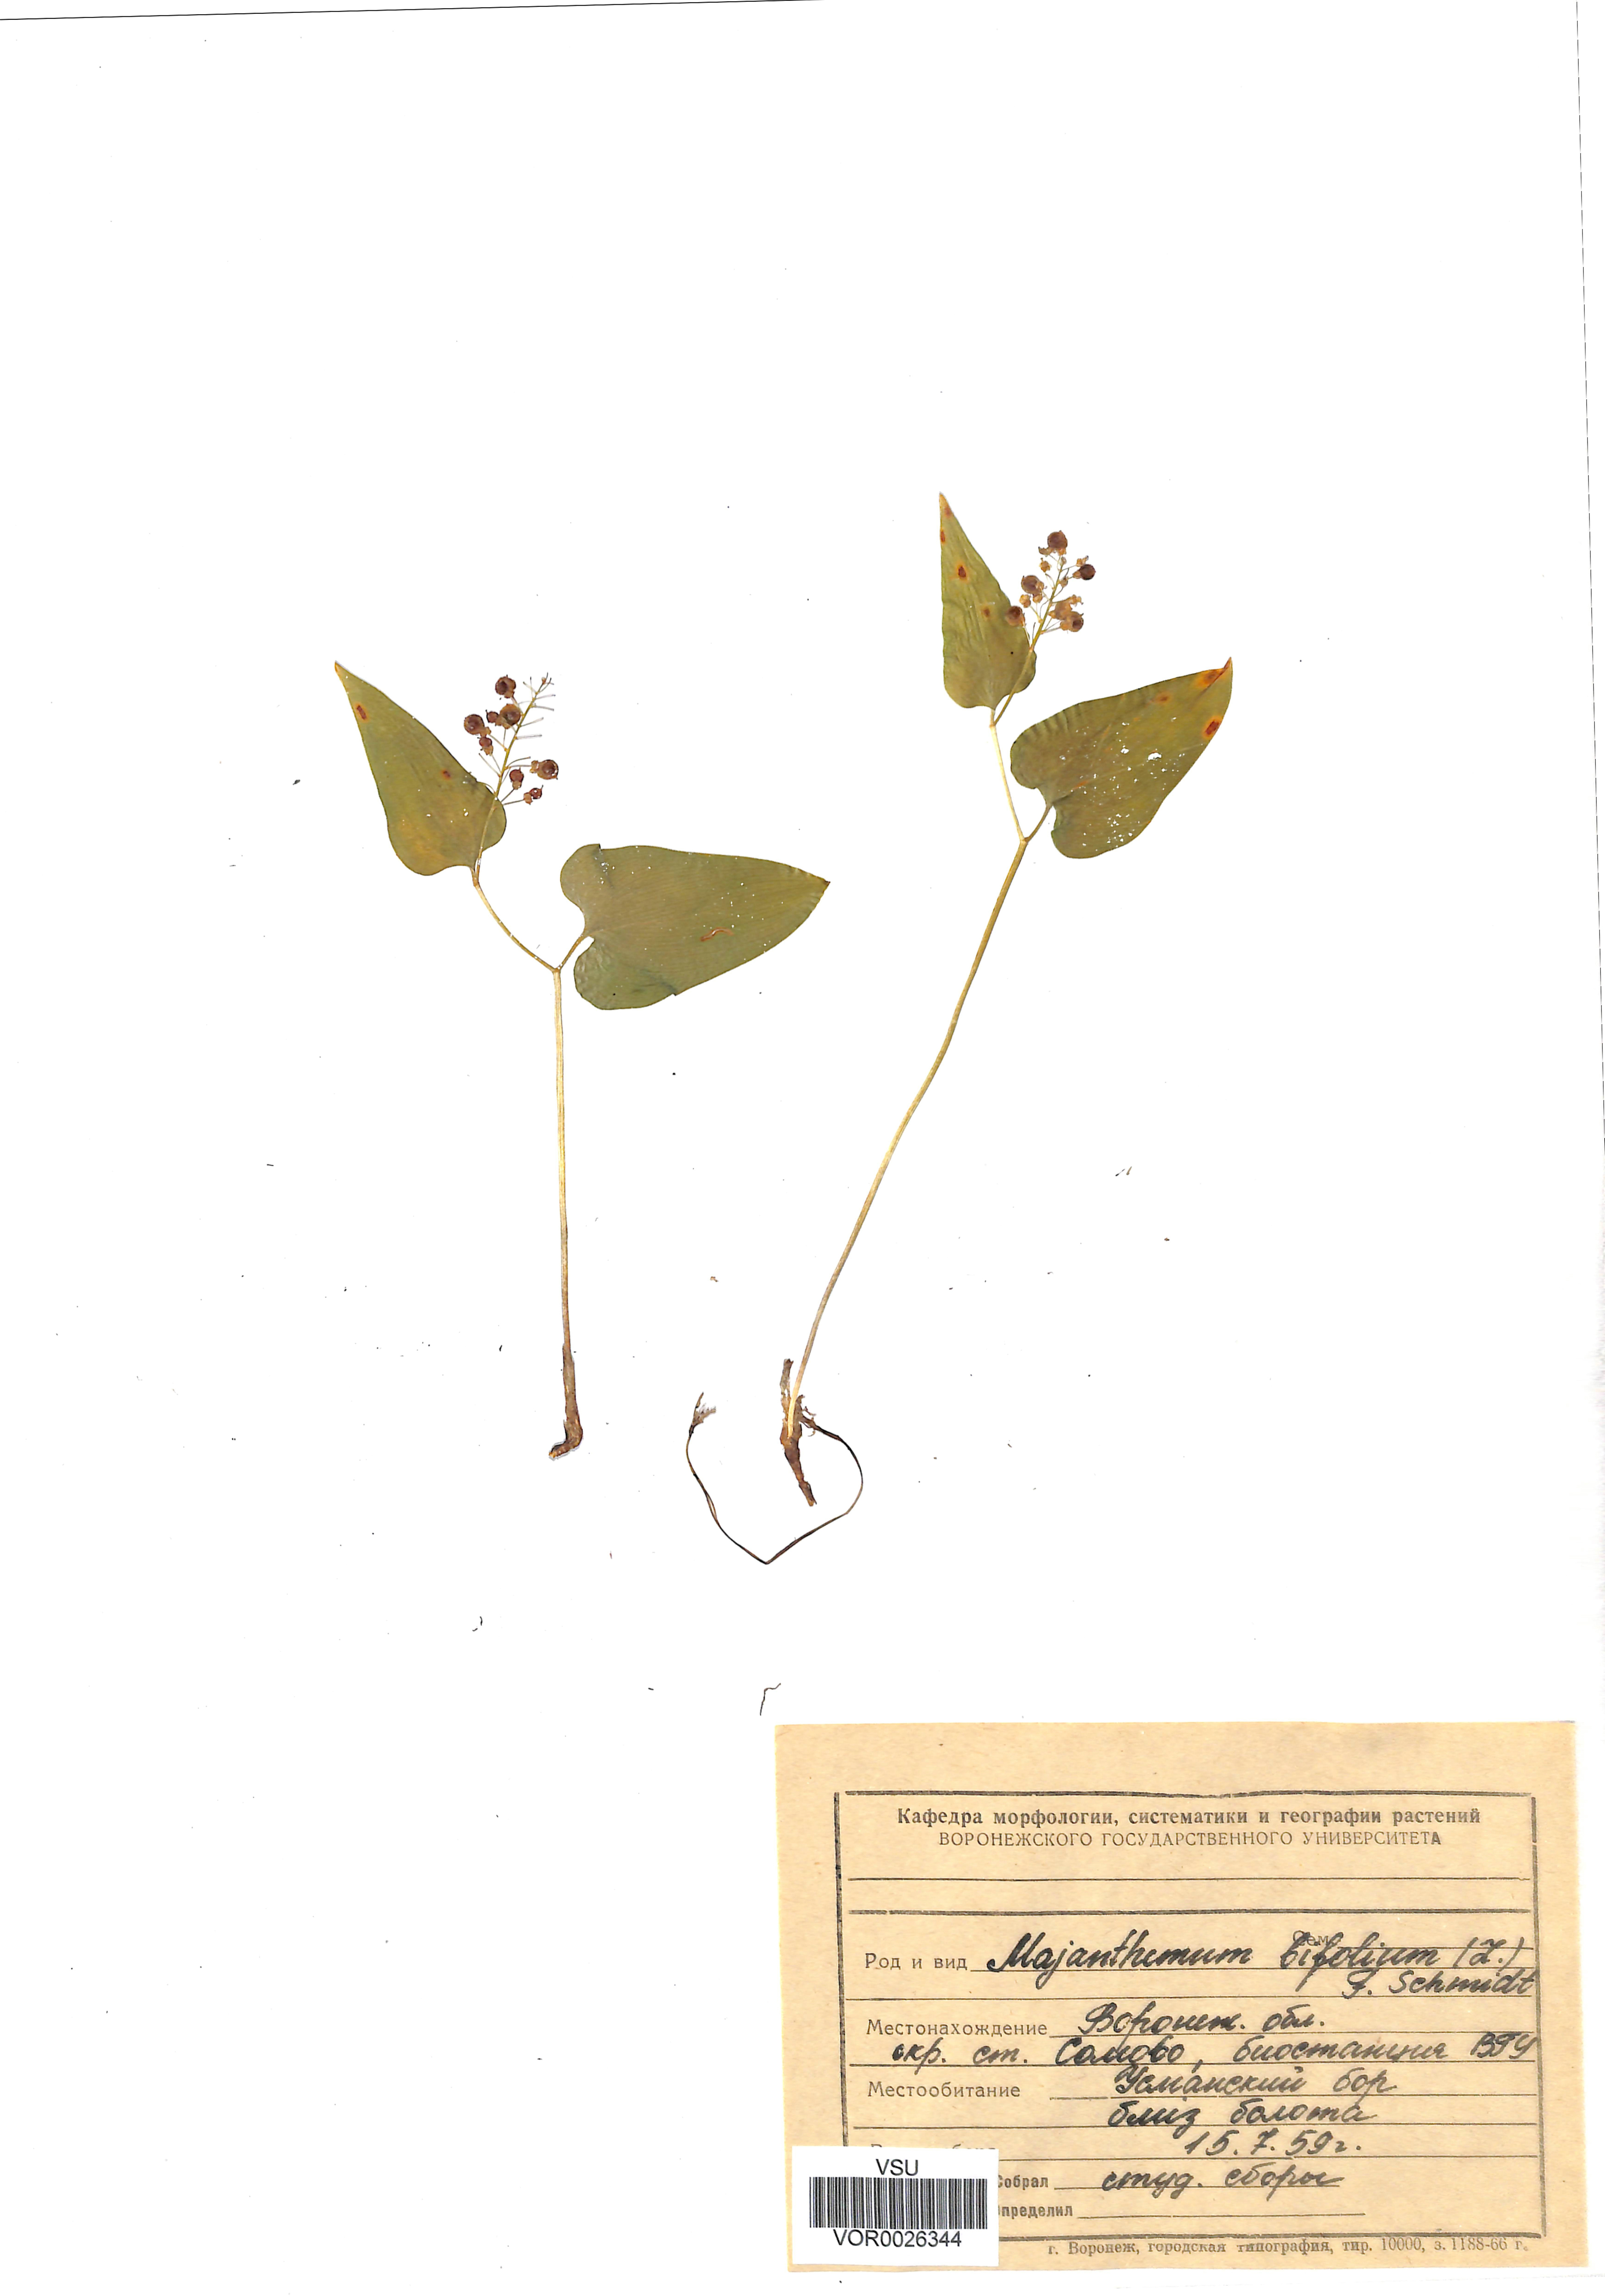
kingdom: Plantae
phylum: Tracheophyta
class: Liliopsida
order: Asparagales
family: Asparagaceae
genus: Maianthemum
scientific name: Maianthemum bifolium
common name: May lily
